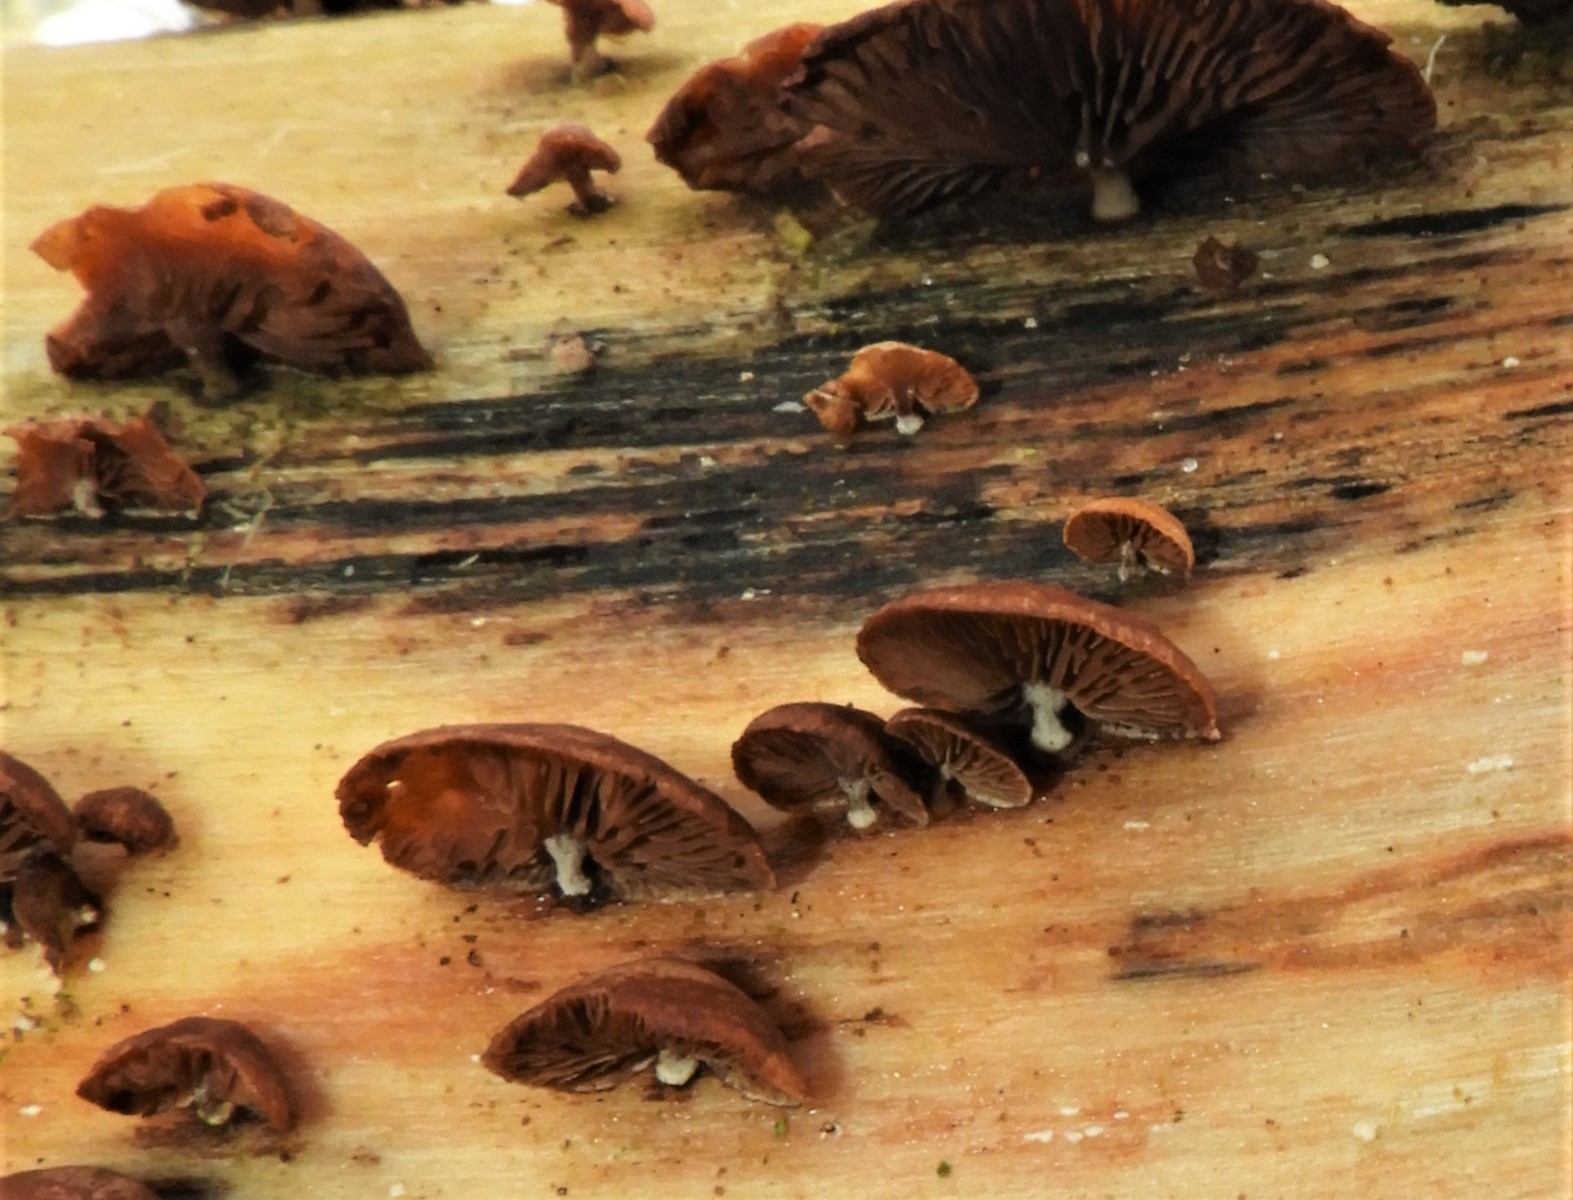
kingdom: Fungi
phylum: Basidiomycota
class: Agaricomycetes
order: Agaricales
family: Strophariaceae
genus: Deconica
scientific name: Deconica horizontalis
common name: ved-stråhat
